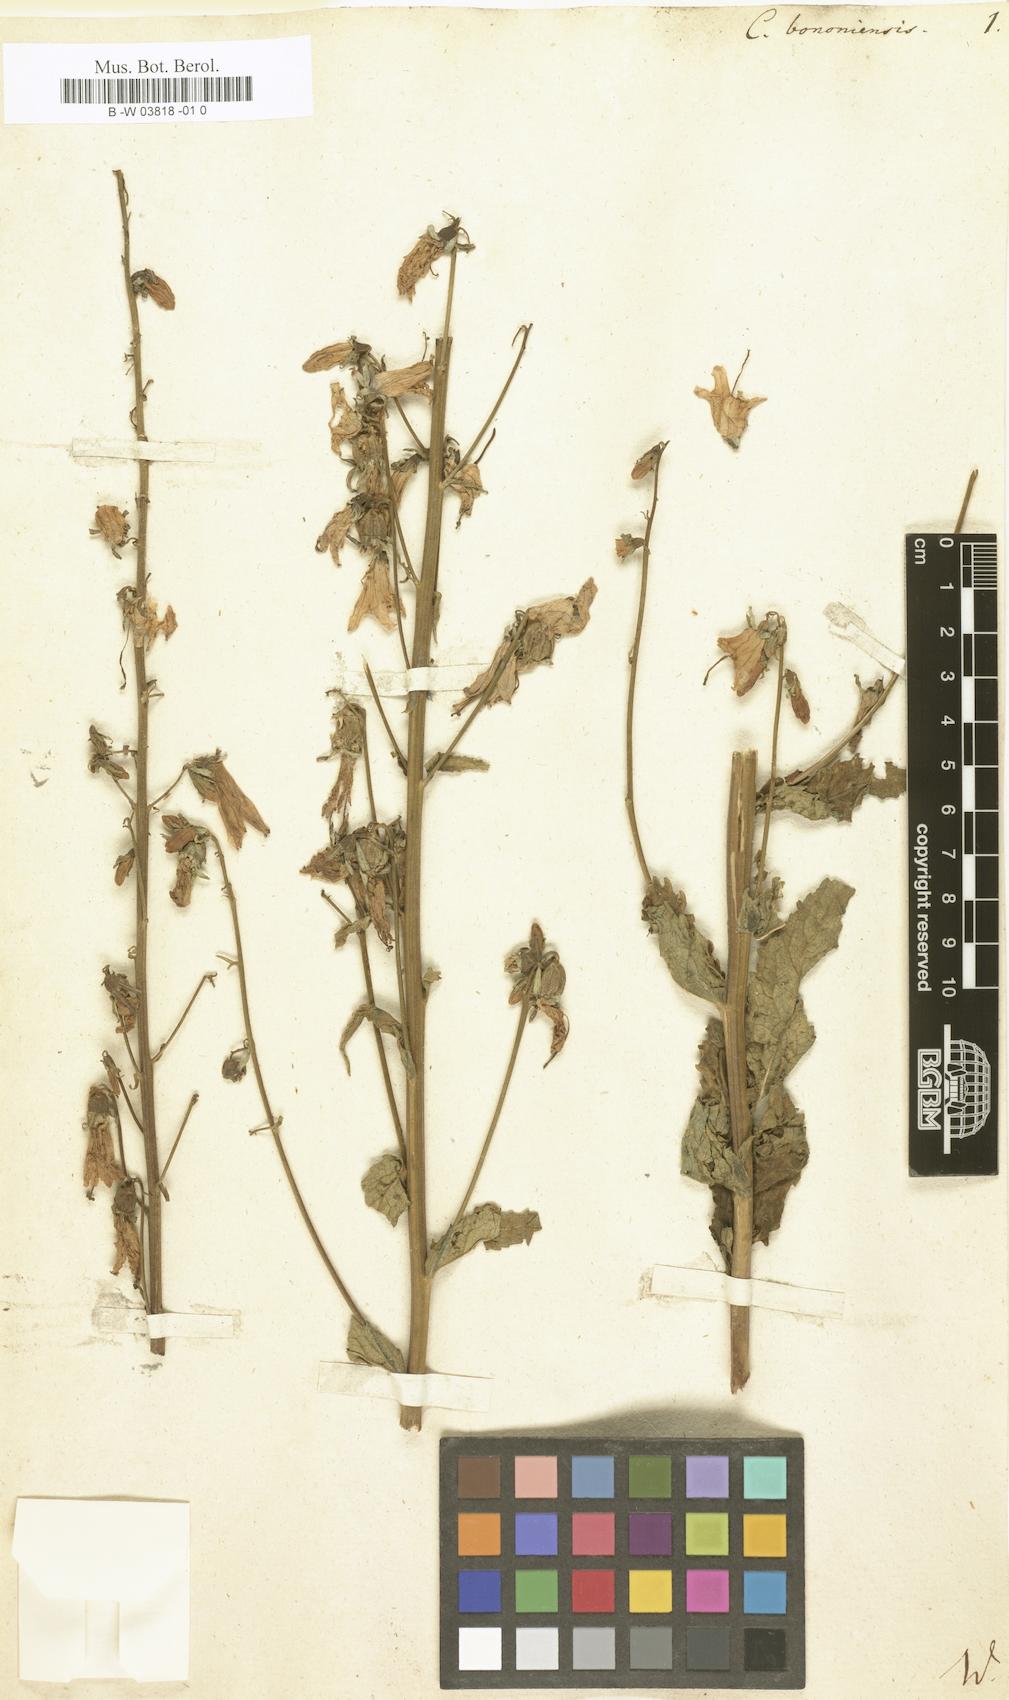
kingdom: Plantae
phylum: Tracheophyta
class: Magnoliopsida
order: Asterales
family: Campanulaceae
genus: Campanula
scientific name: Campanula bononiensis
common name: Pale bellflower
